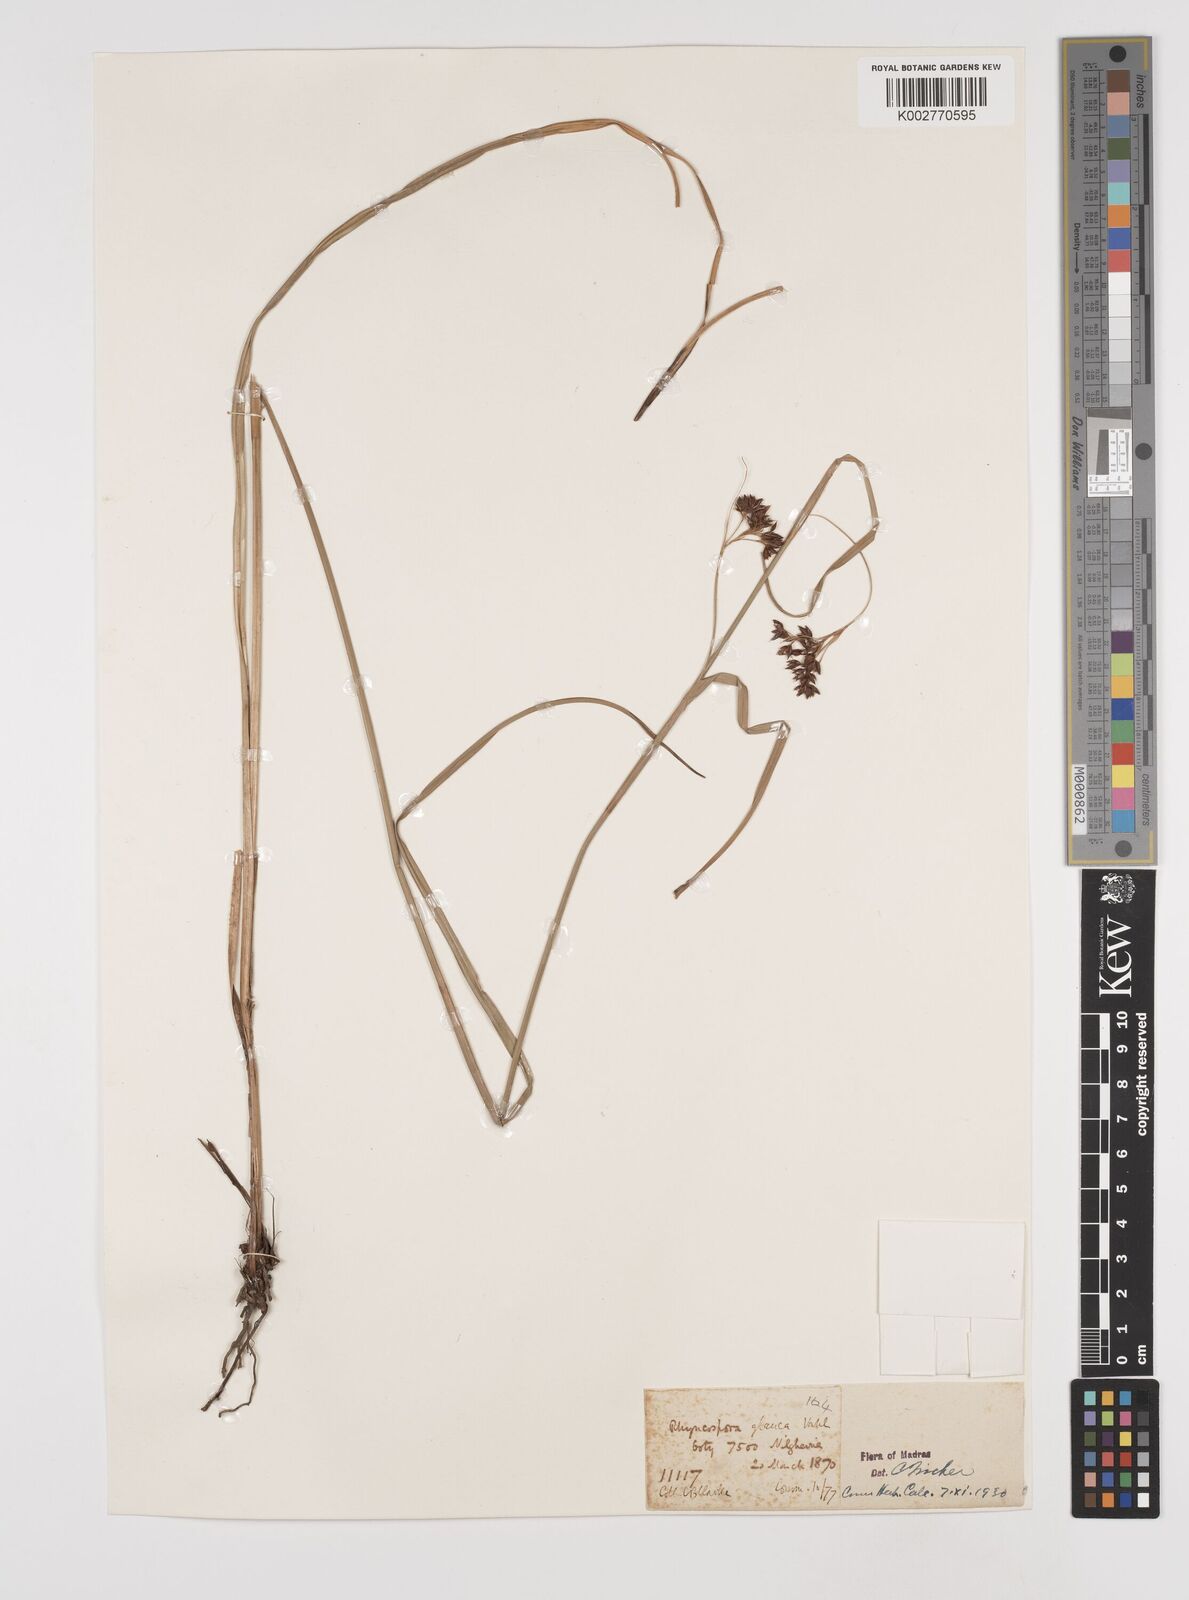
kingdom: Plantae
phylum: Tracheophyta
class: Liliopsida
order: Poales
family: Cyperaceae
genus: Rhynchospora
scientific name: Rhynchospora rugosa
